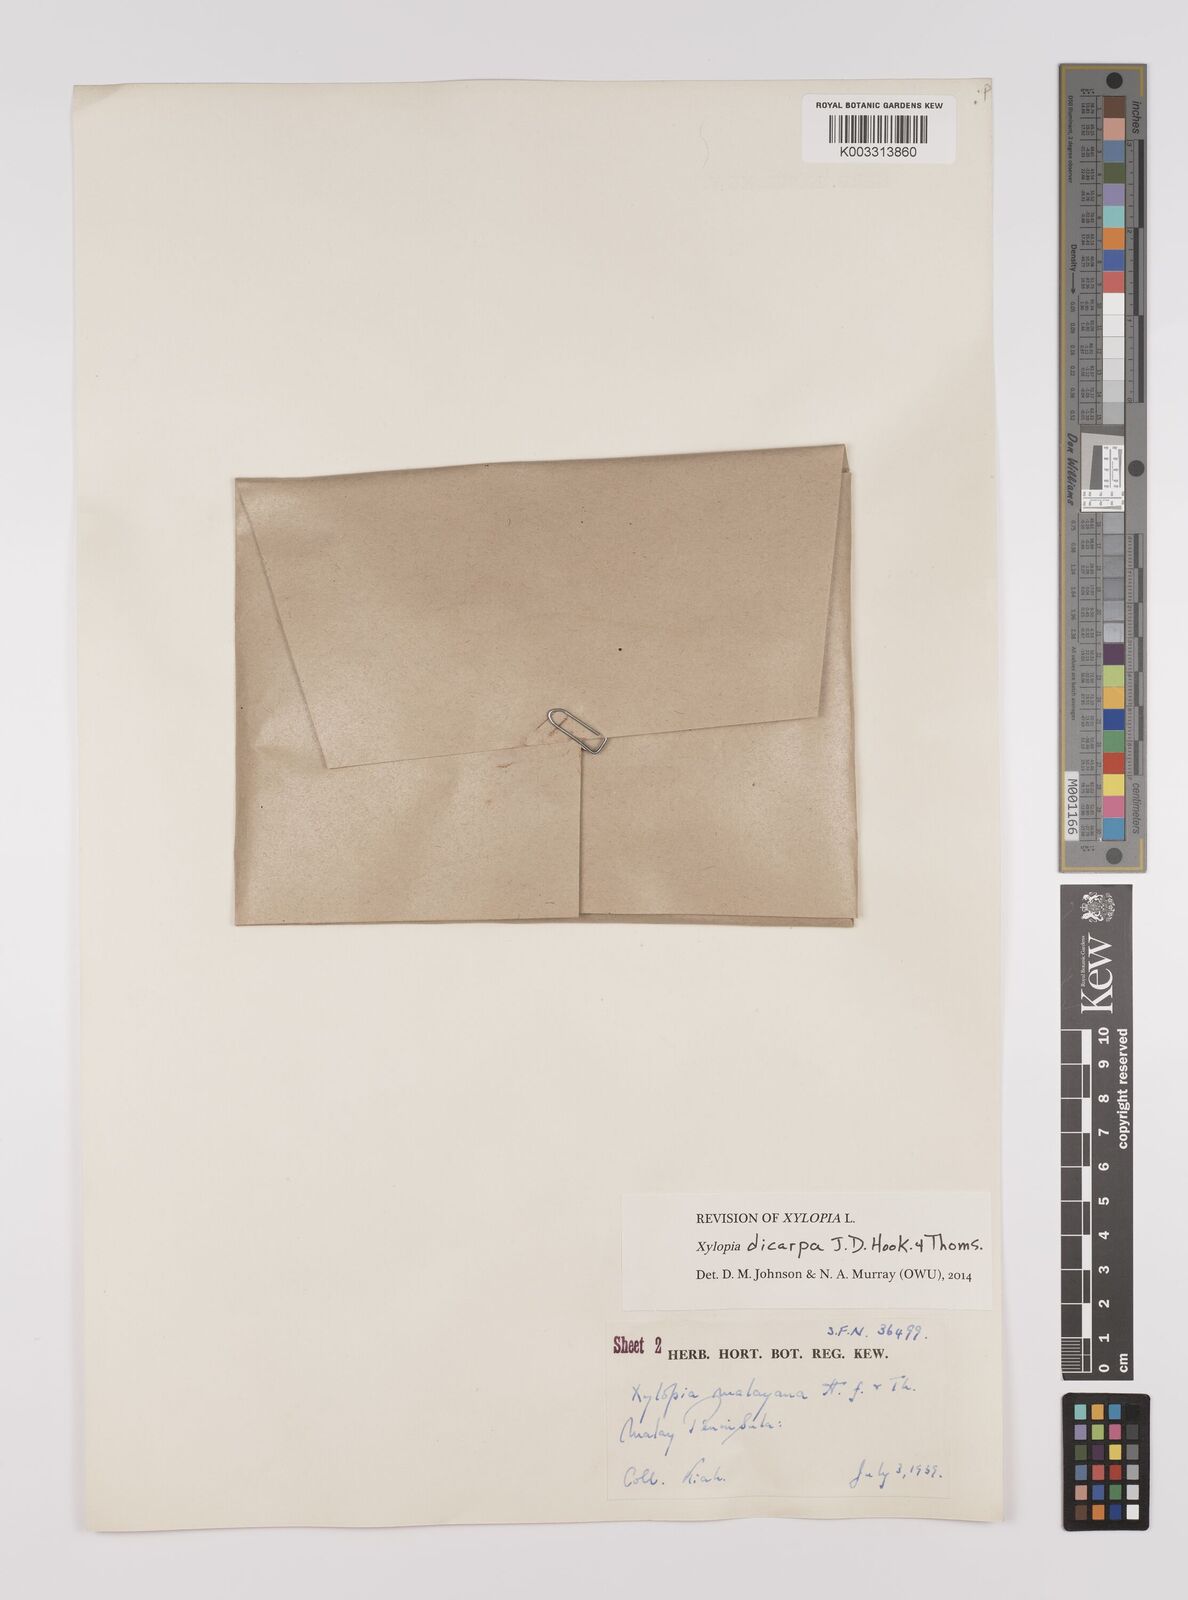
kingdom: Plantae
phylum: Tracheophyta
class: Magnoliopsida
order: Magnoliales
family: Annonaceae
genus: Xylopia
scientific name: Xylopia malayana
